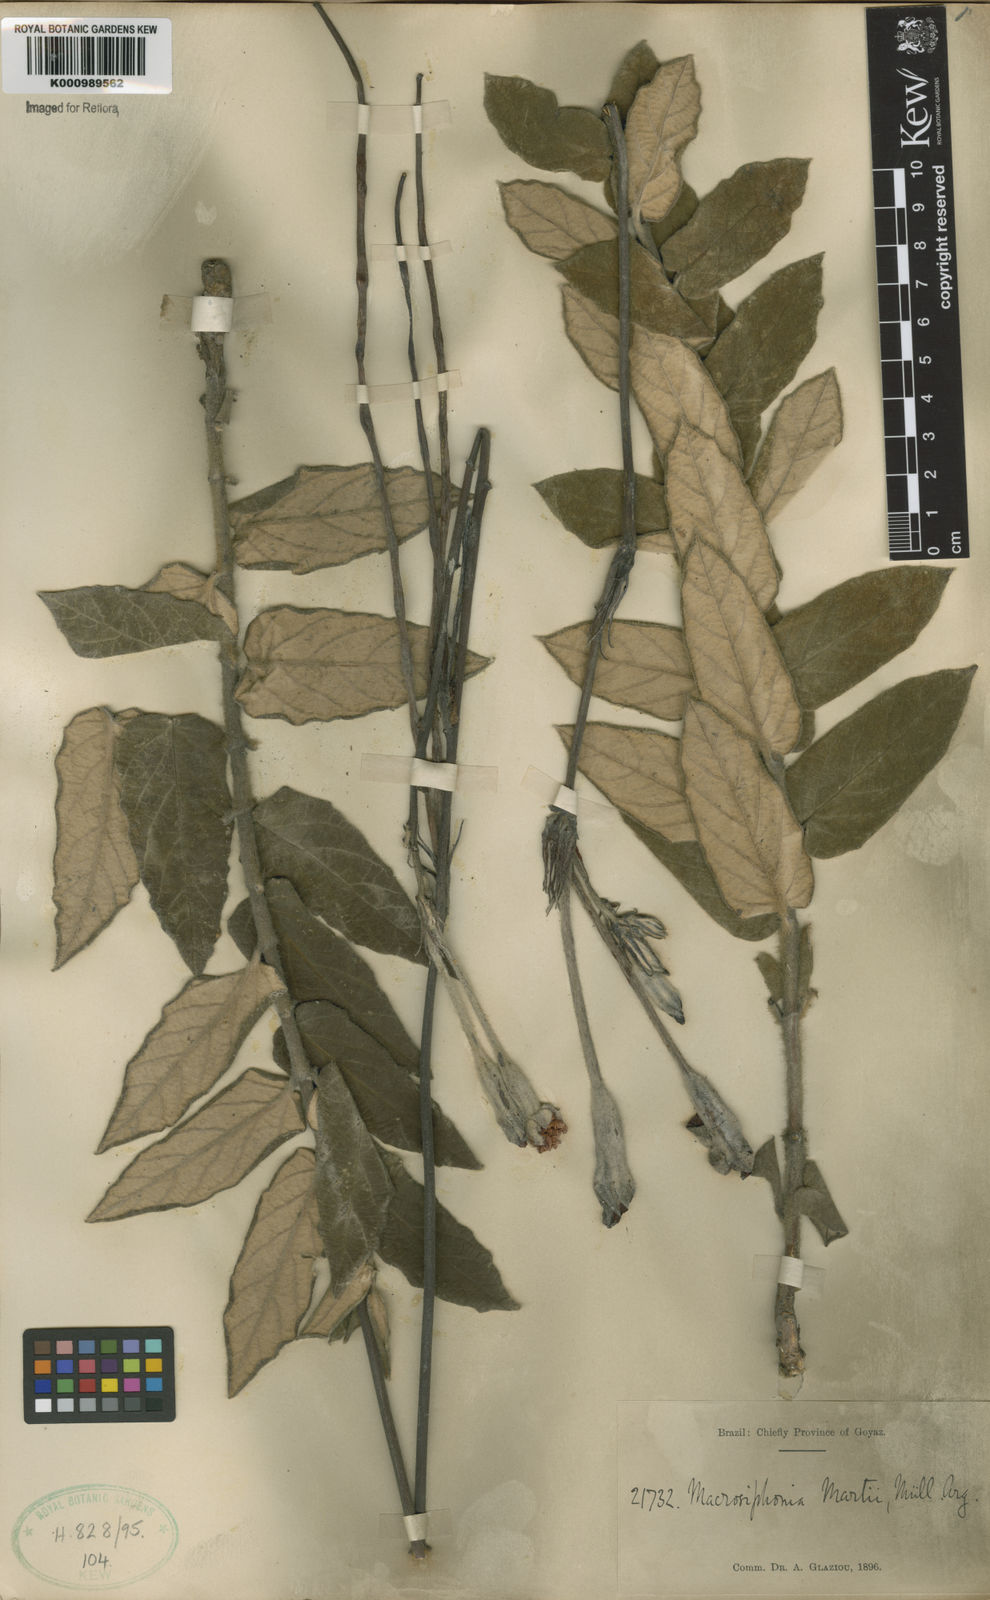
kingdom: Plantae
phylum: Tracheophyta
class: Magnoliopsida
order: Gentianales
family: Apocynaceae
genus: Mandevilla
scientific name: Mandevilla
